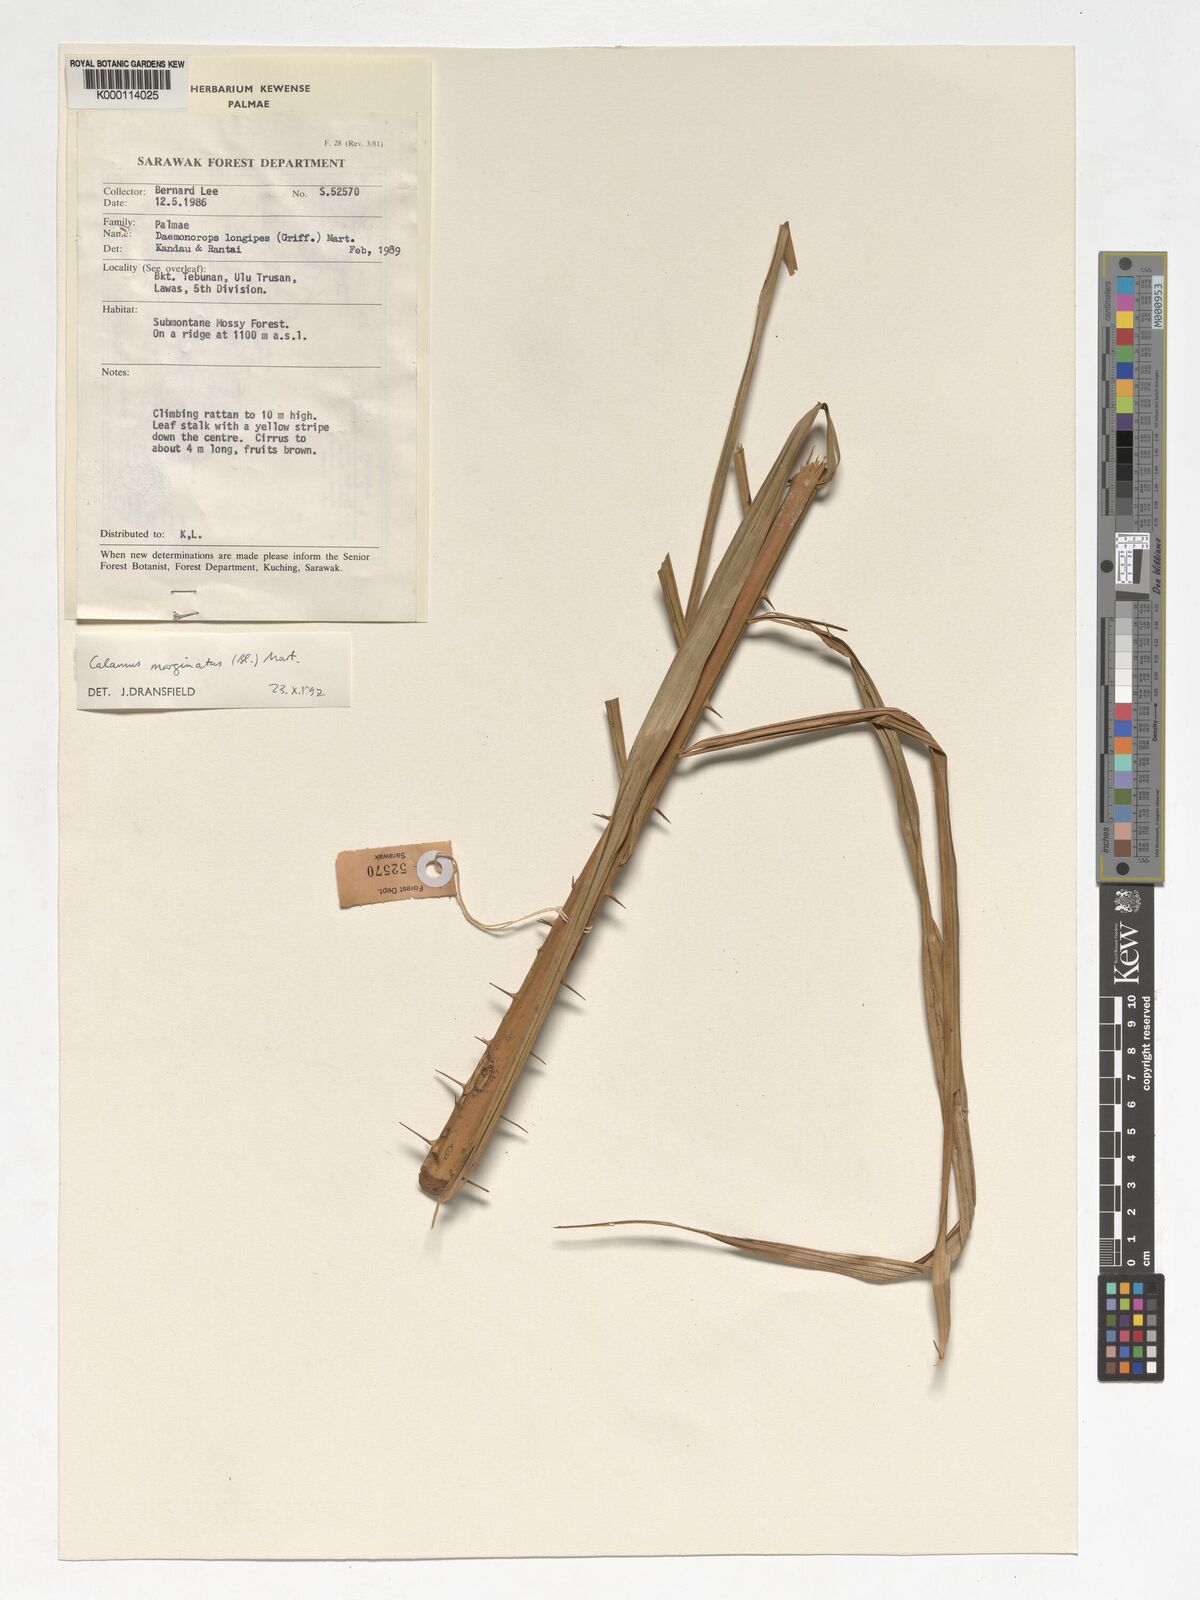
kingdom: Plantae
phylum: Tracheophyta
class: Liliopsida
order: Arecales
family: Arecaceae
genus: Calamus
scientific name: Calamus
